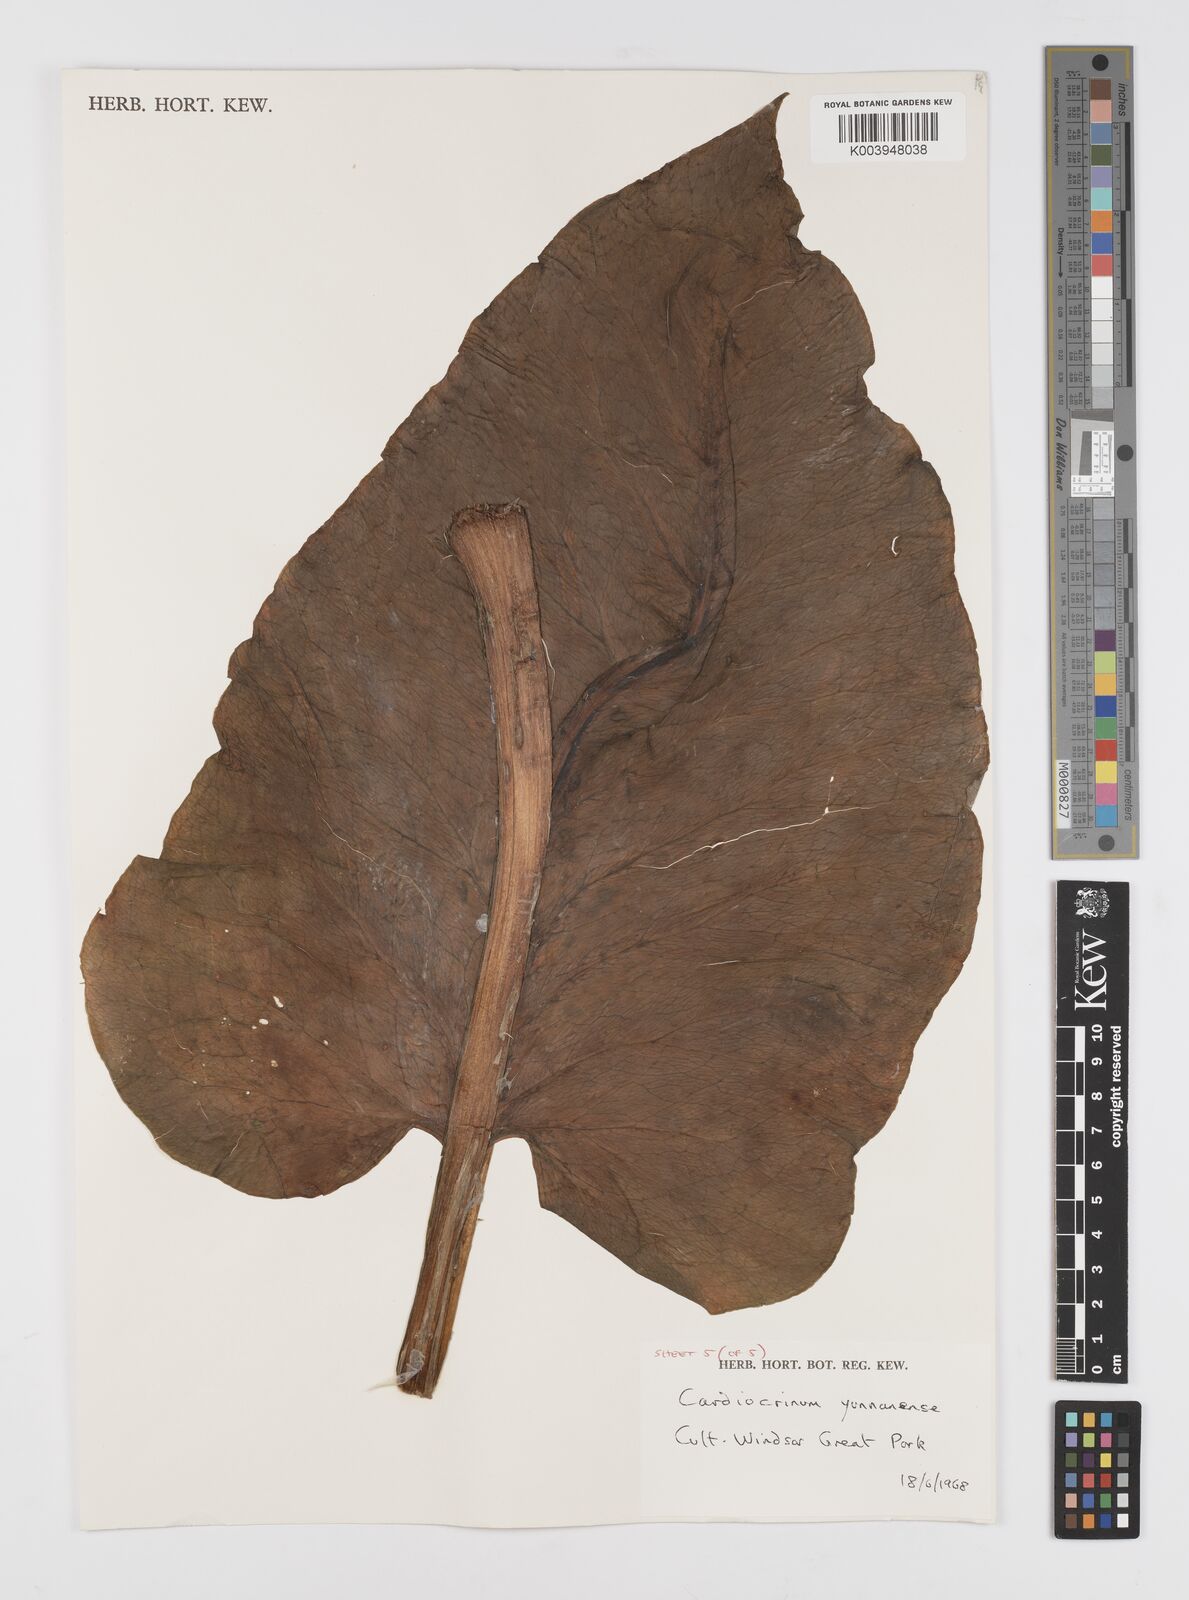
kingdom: Plantae
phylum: Tracheophyta
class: Liliopsida
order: Liliales
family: Liliaceae
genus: Cardiocrinum
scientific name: Cardiocrinum
